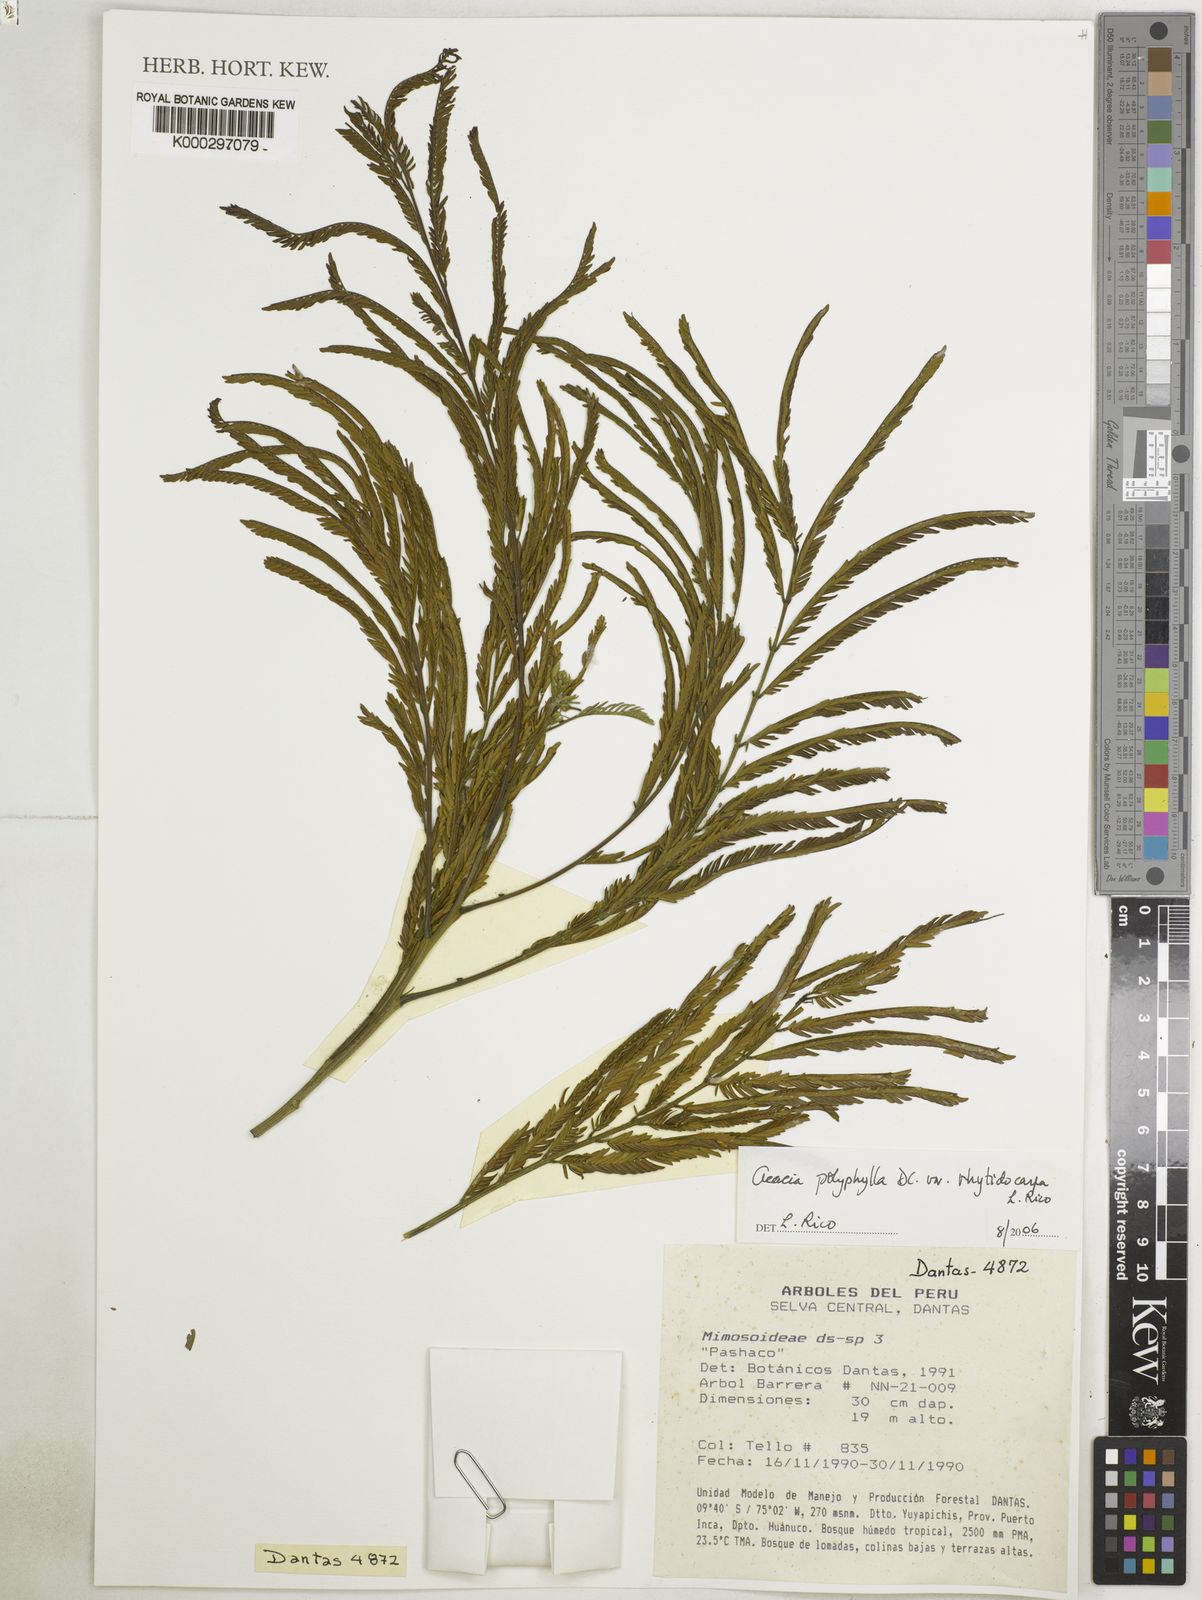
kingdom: Plantae
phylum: Tracheophyta
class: Magnoliopsida
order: Fabales
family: Fabaceae
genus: Senegalia
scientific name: Senegalia rhytidocarpa
